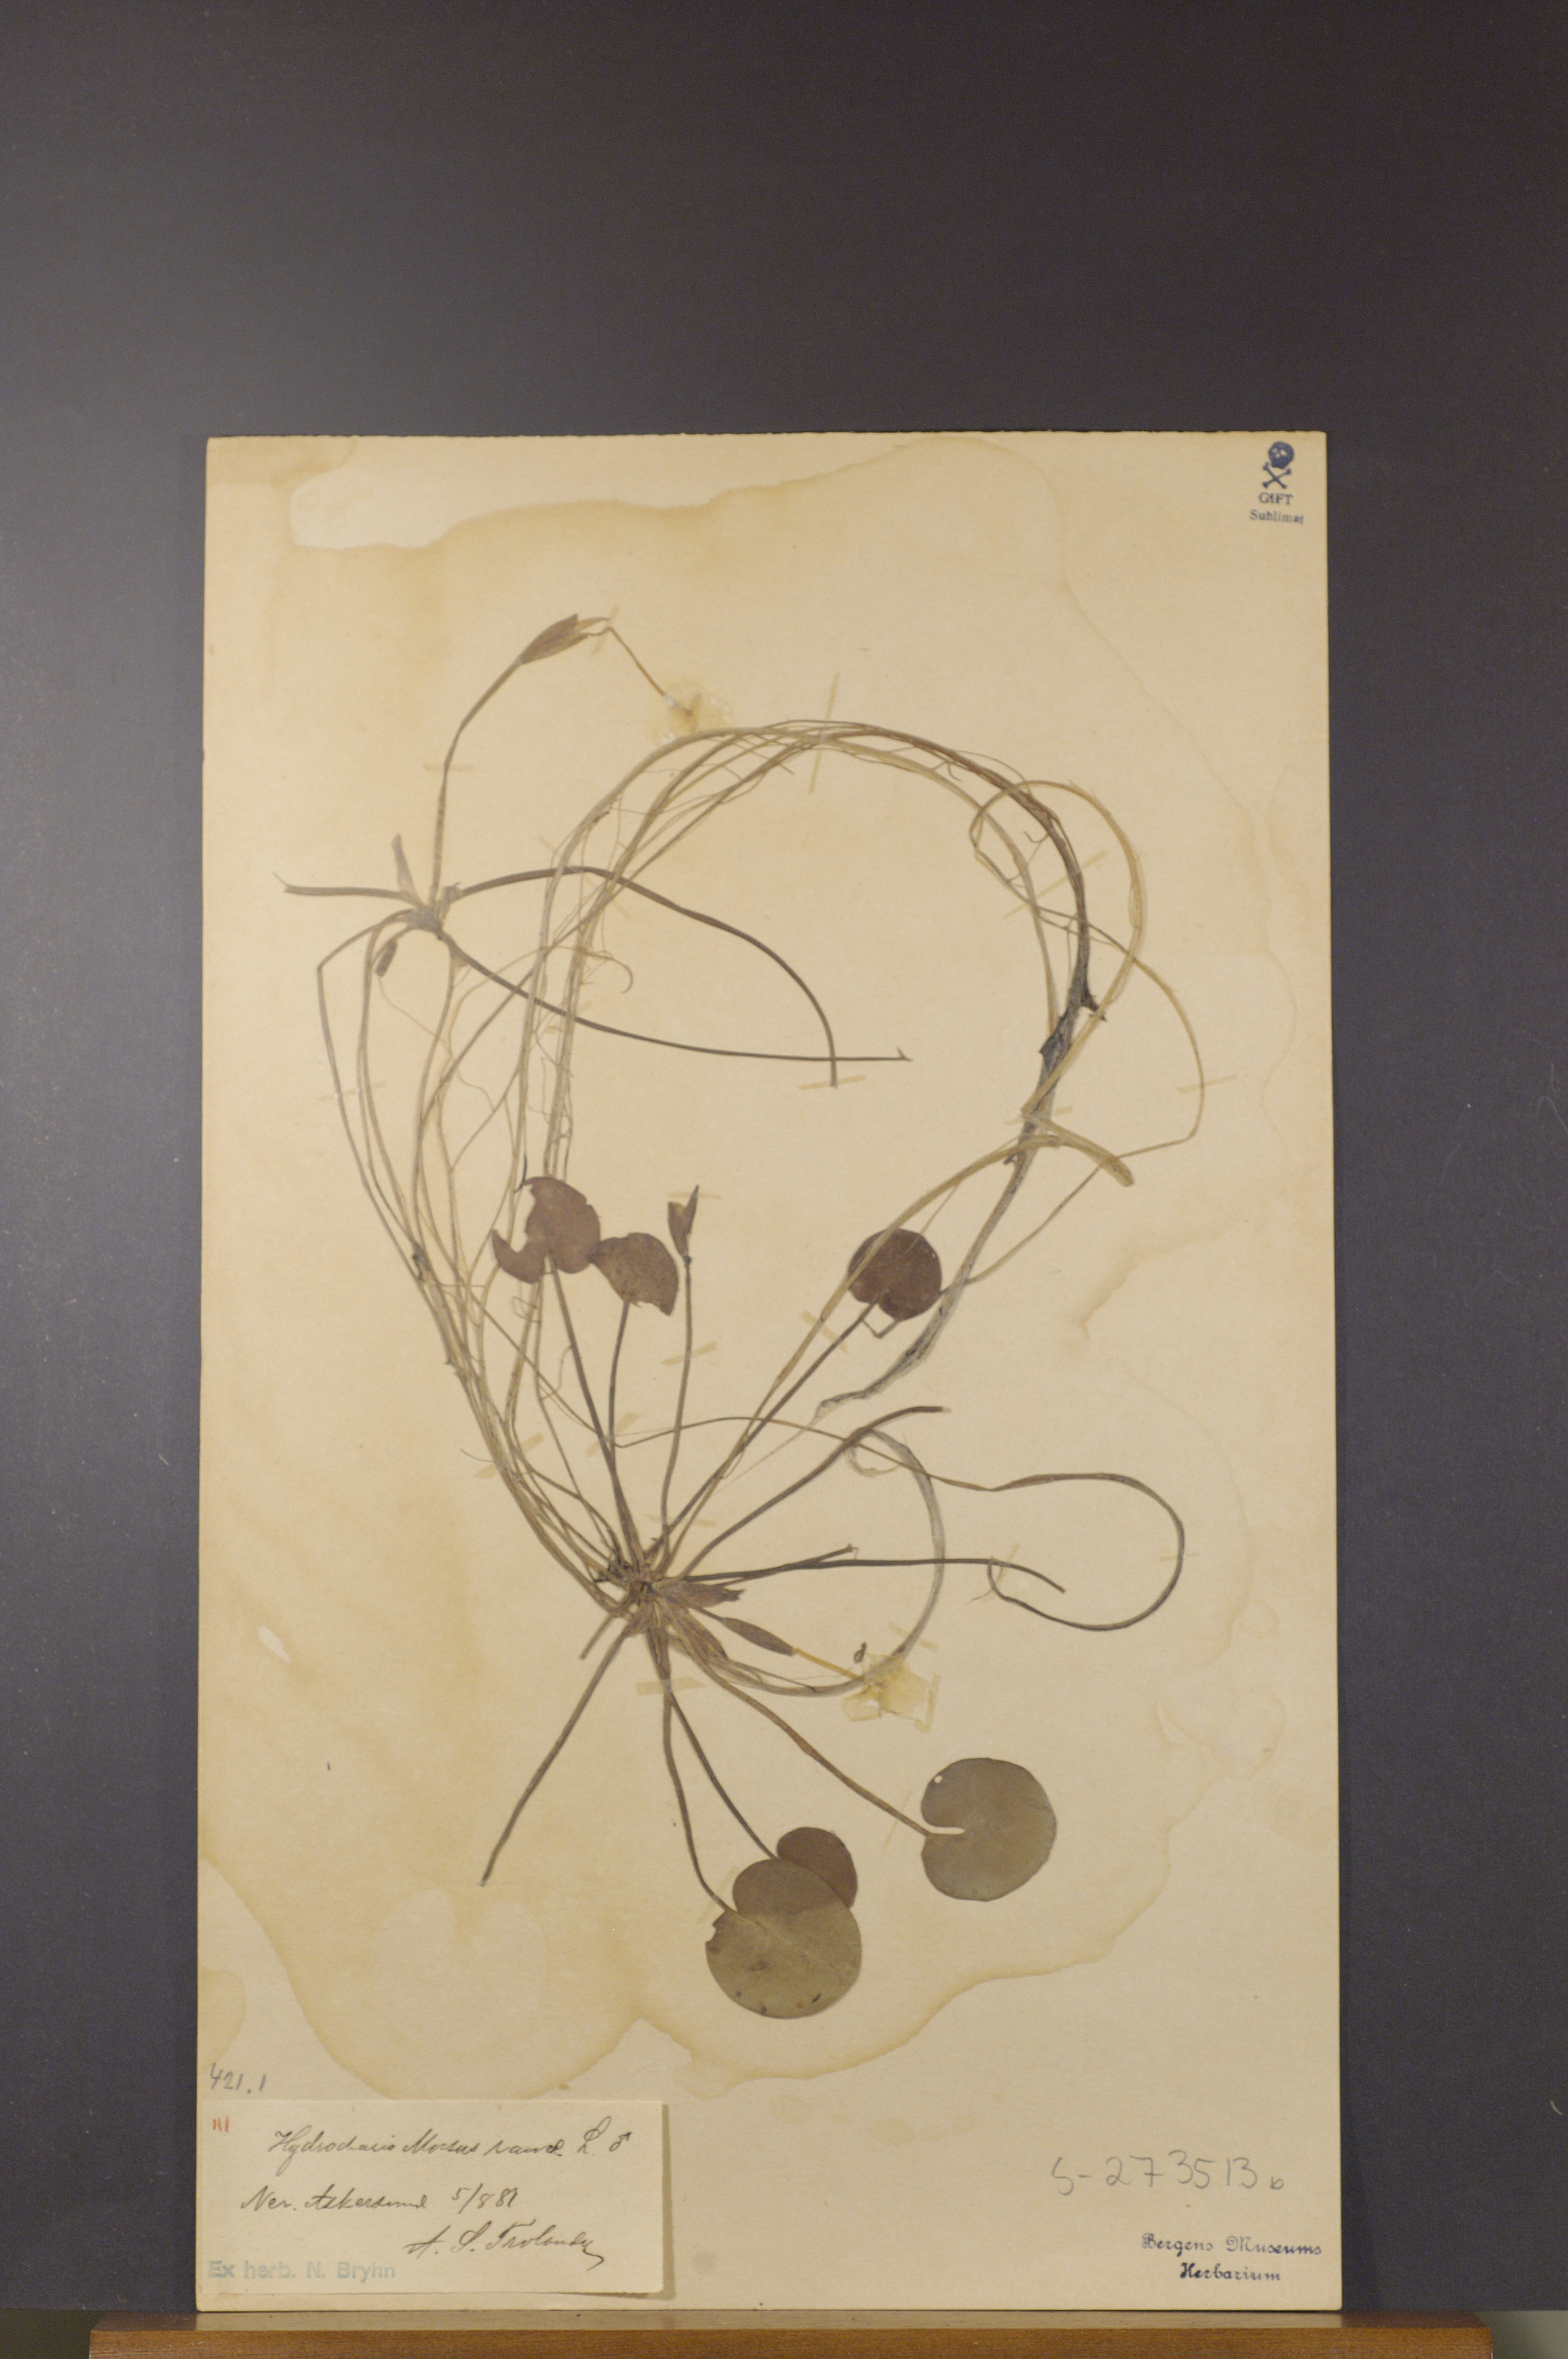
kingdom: Plantae
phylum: Tracheophyta
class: Liliopsida
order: Alismatales
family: Hydrocharitaceae
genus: Hydrocharis
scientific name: Hydrocharis morsus-ranae
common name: Frogbit
